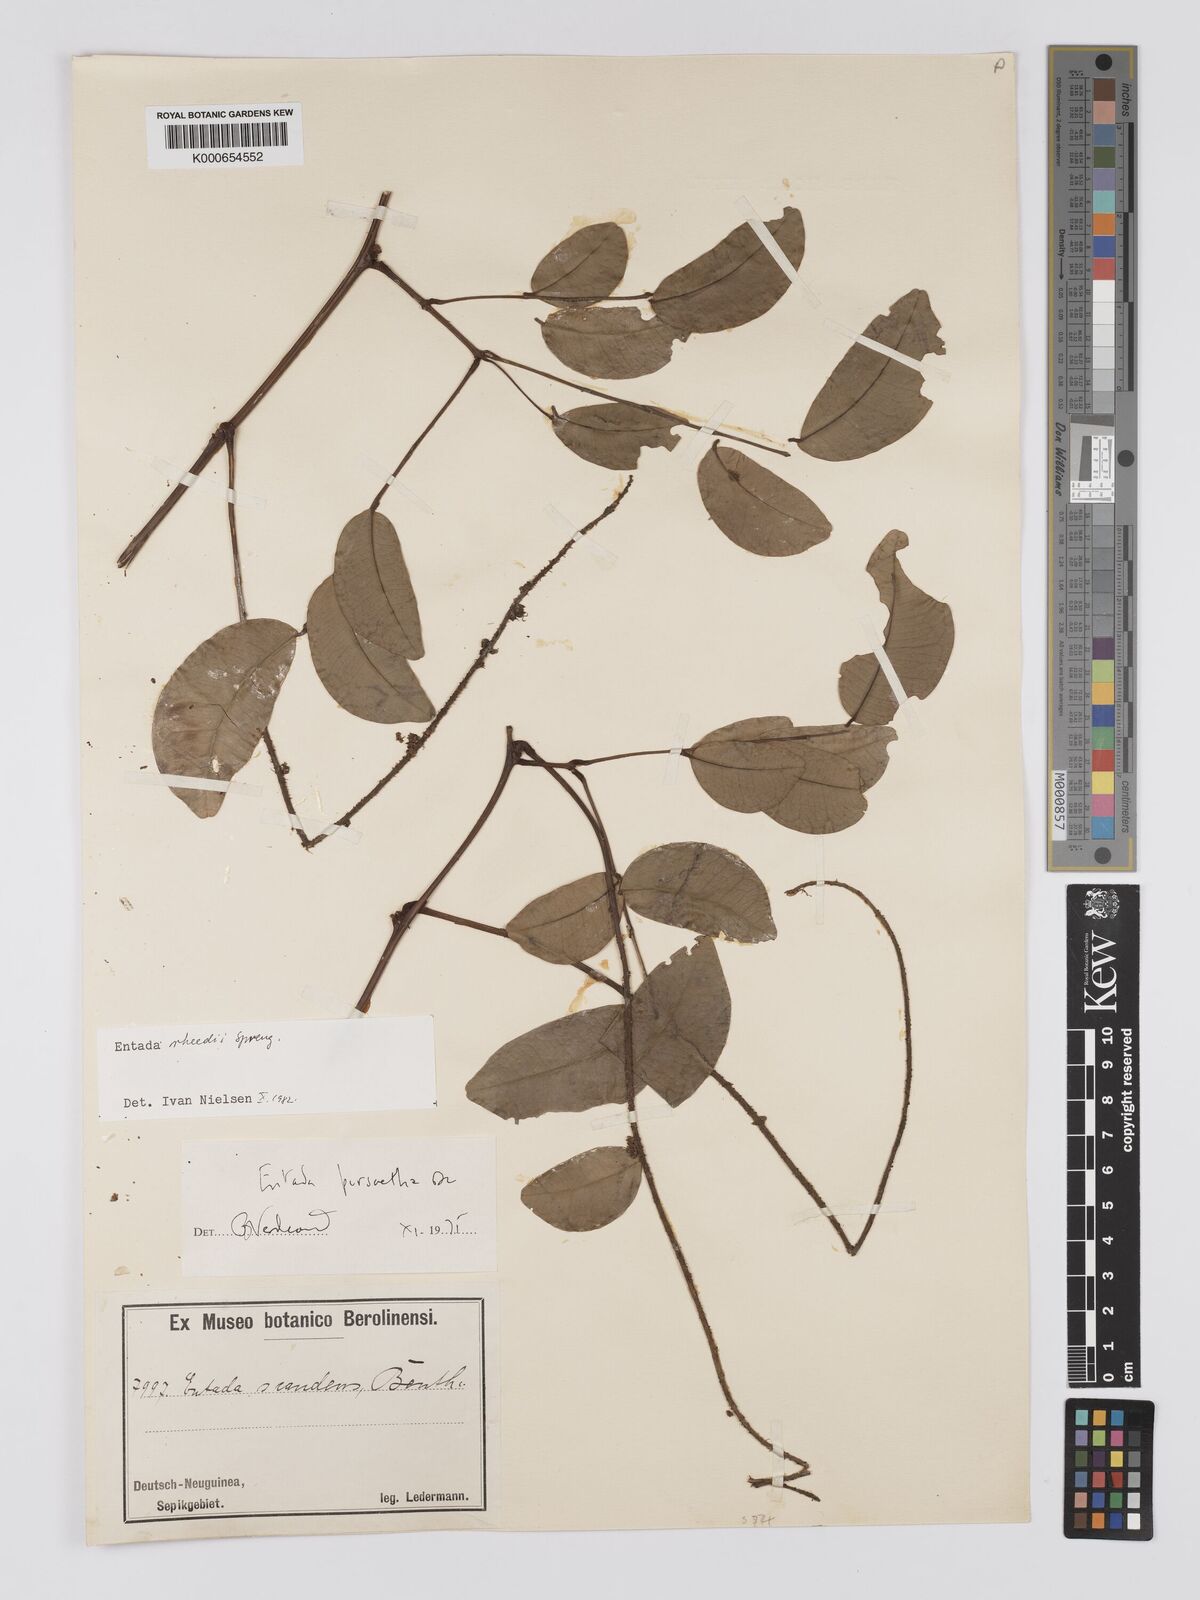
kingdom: Plantae
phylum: Tracheophyta
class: Magnoliopsida
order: Fabales
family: Fabaceae
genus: Entada
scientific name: Entada rheedei
